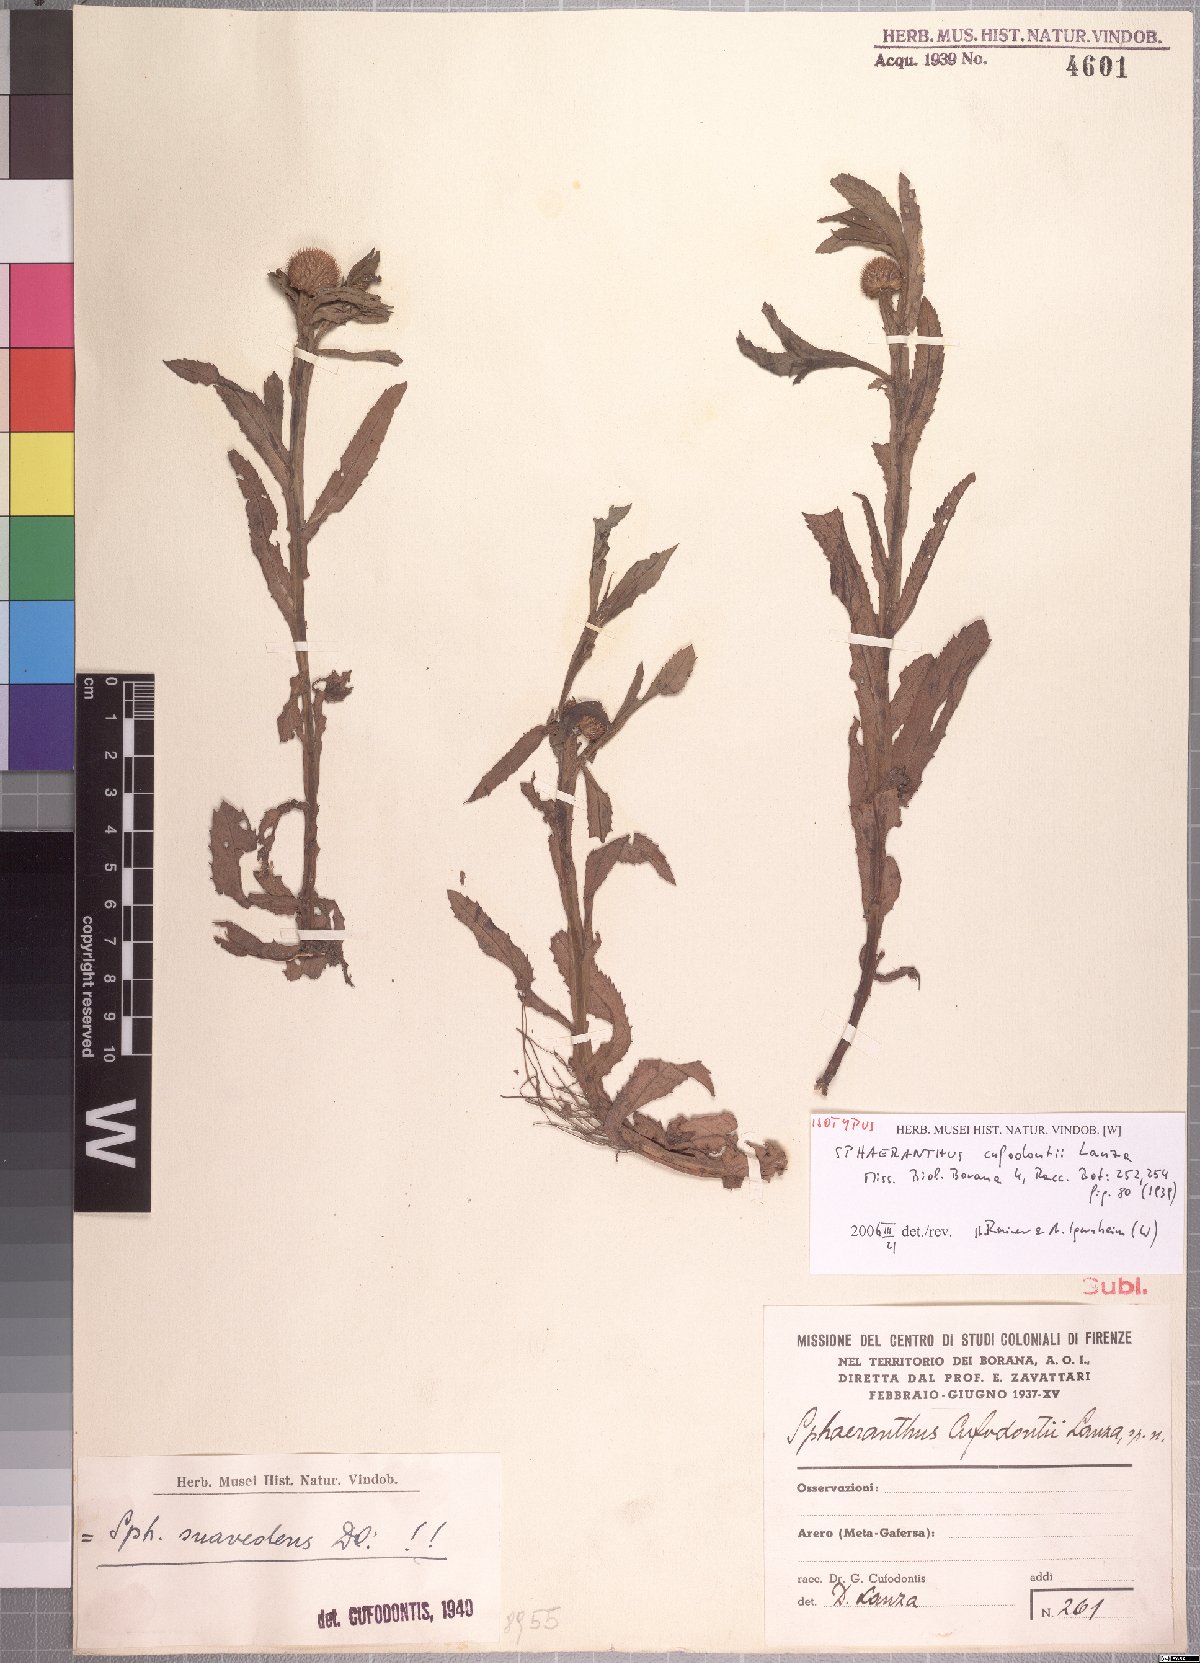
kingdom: Plantae
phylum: Tracheophyta
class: Magnoliopsida
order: Asterales
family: Asteraceae
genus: Sphaeranthus
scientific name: Sphaeranthus suaveolens
